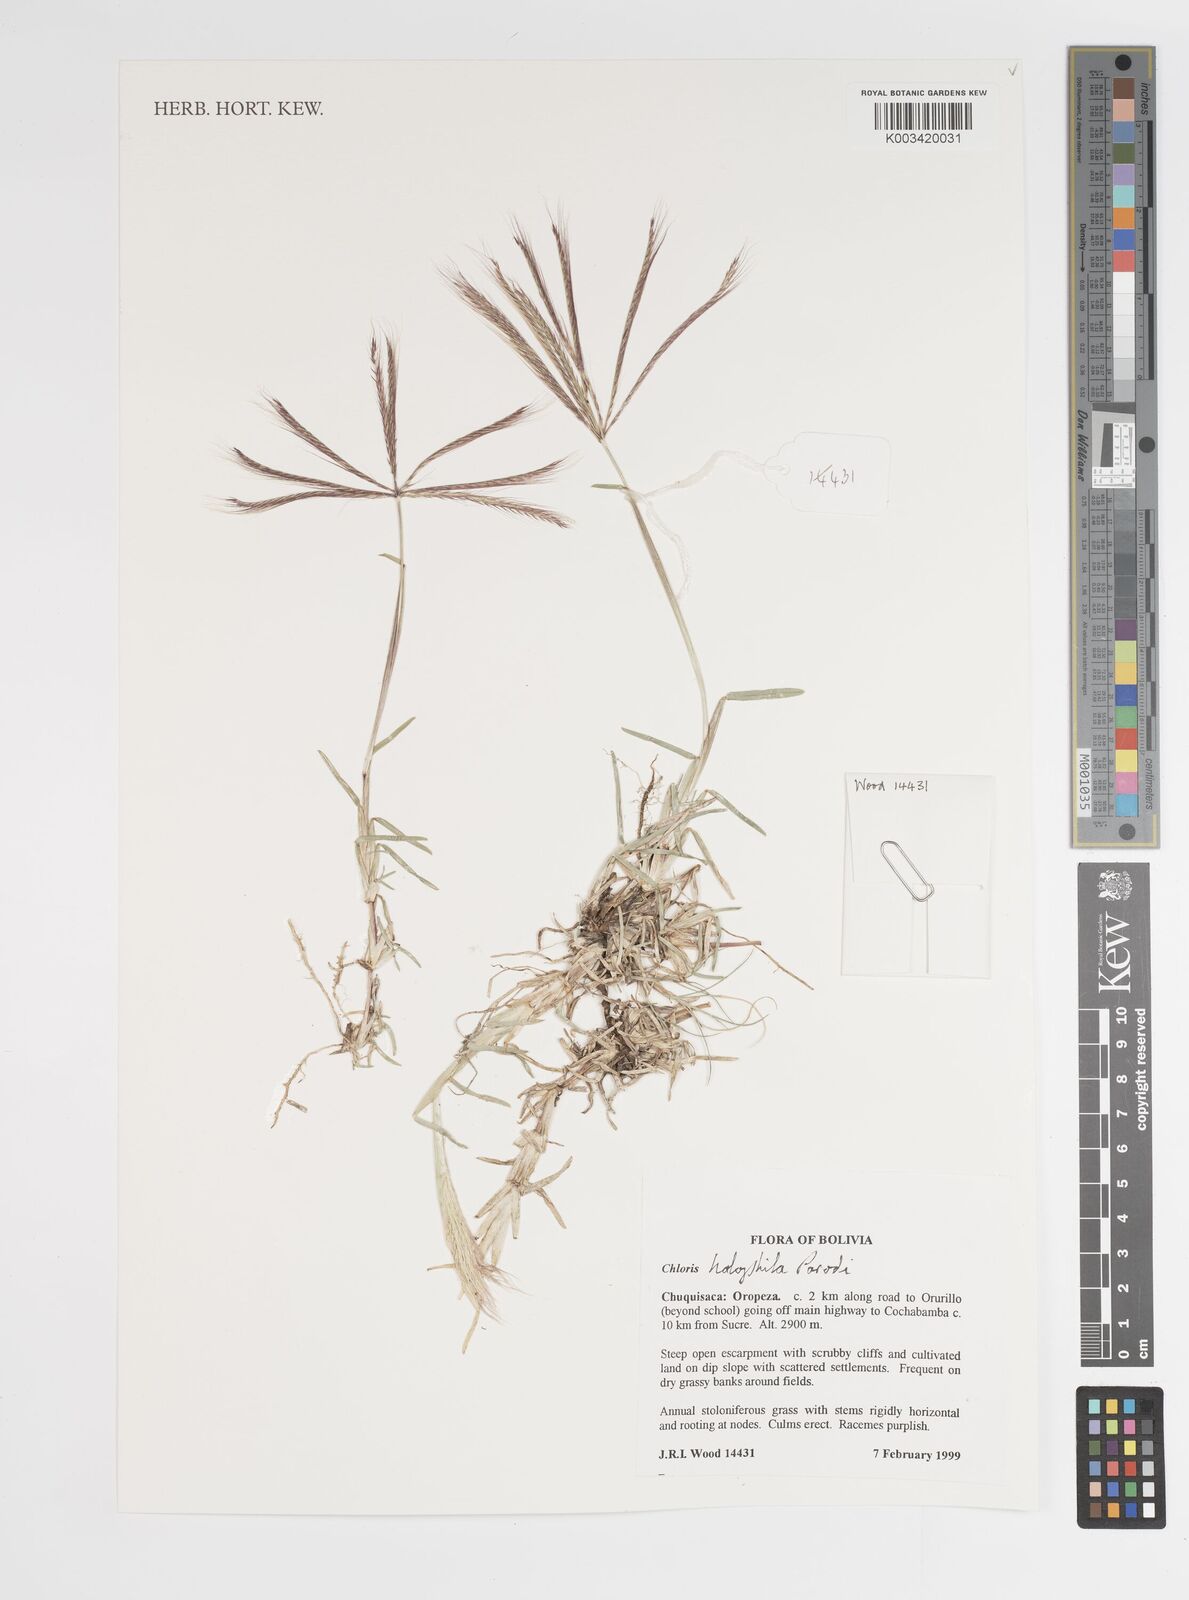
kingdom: Plantae
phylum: Tracheophyta
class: Liliopsida
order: Poales
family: Poaceae
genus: Chloris
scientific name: Chloris halophila
